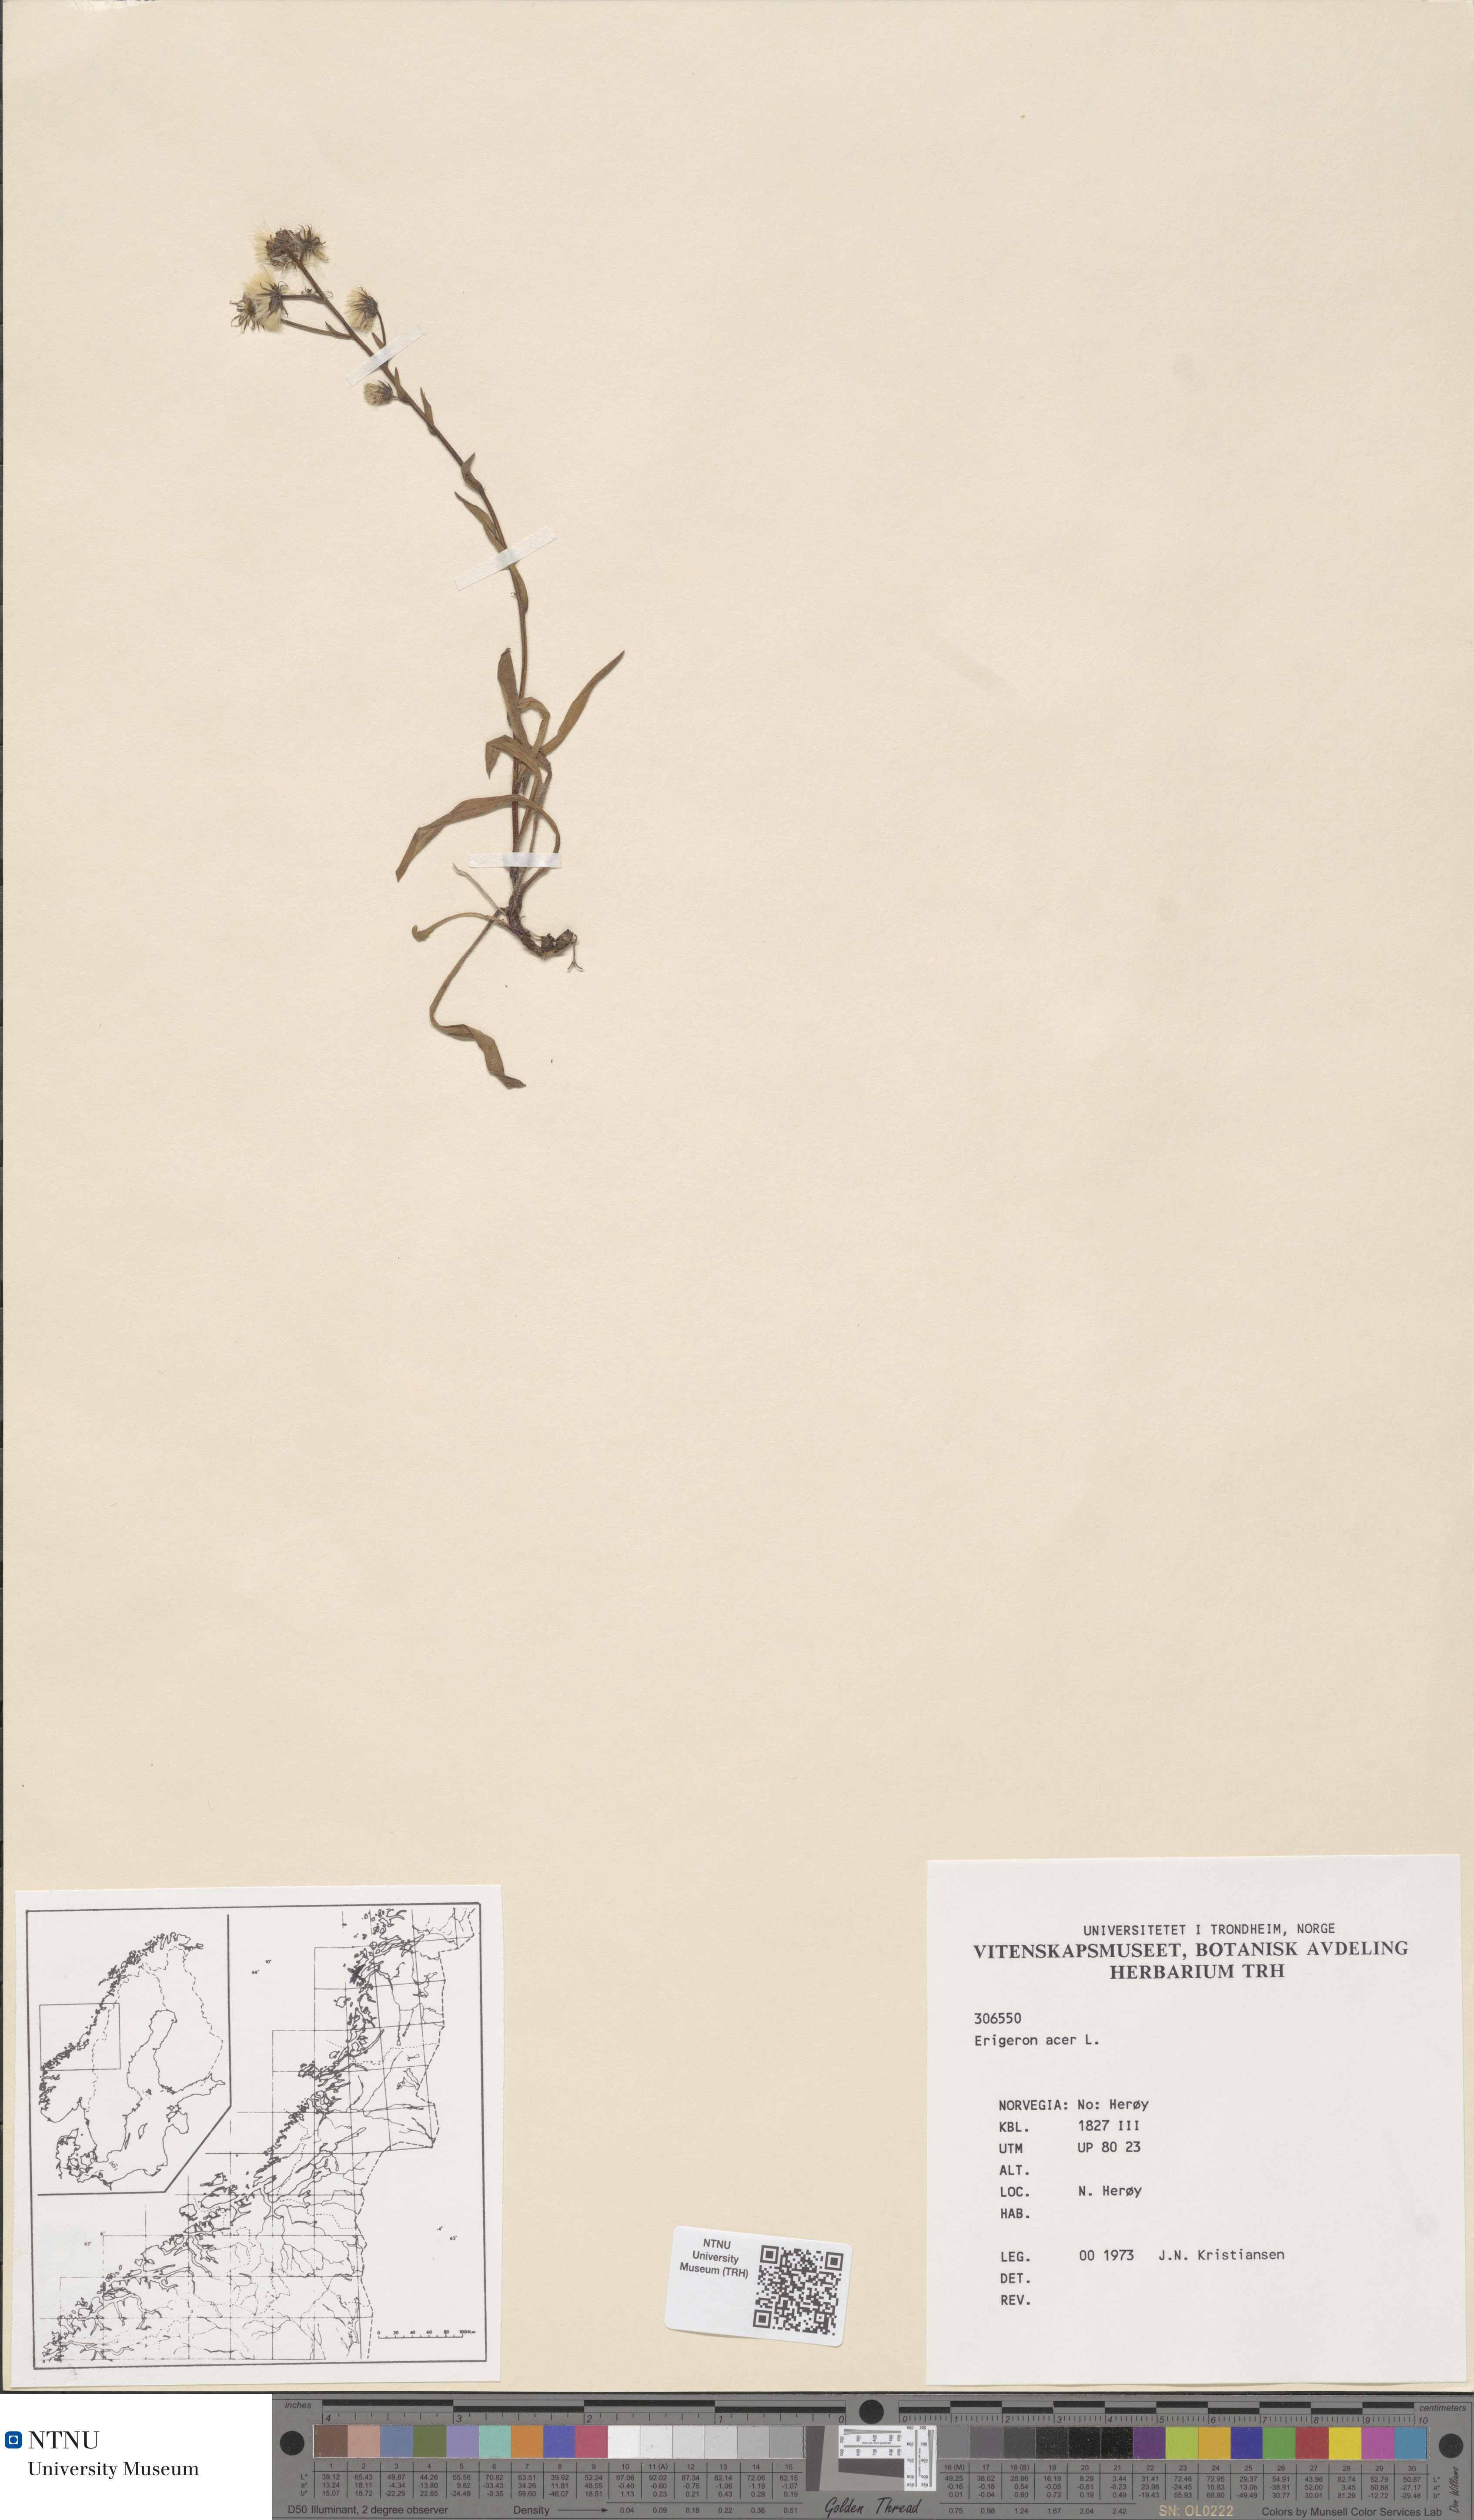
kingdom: Plantae
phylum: Tracheophyta
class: Magnoliopsida
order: Asterales
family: Asteraceae
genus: Erigeron
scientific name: Erigeron acris
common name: Blue fleabane
